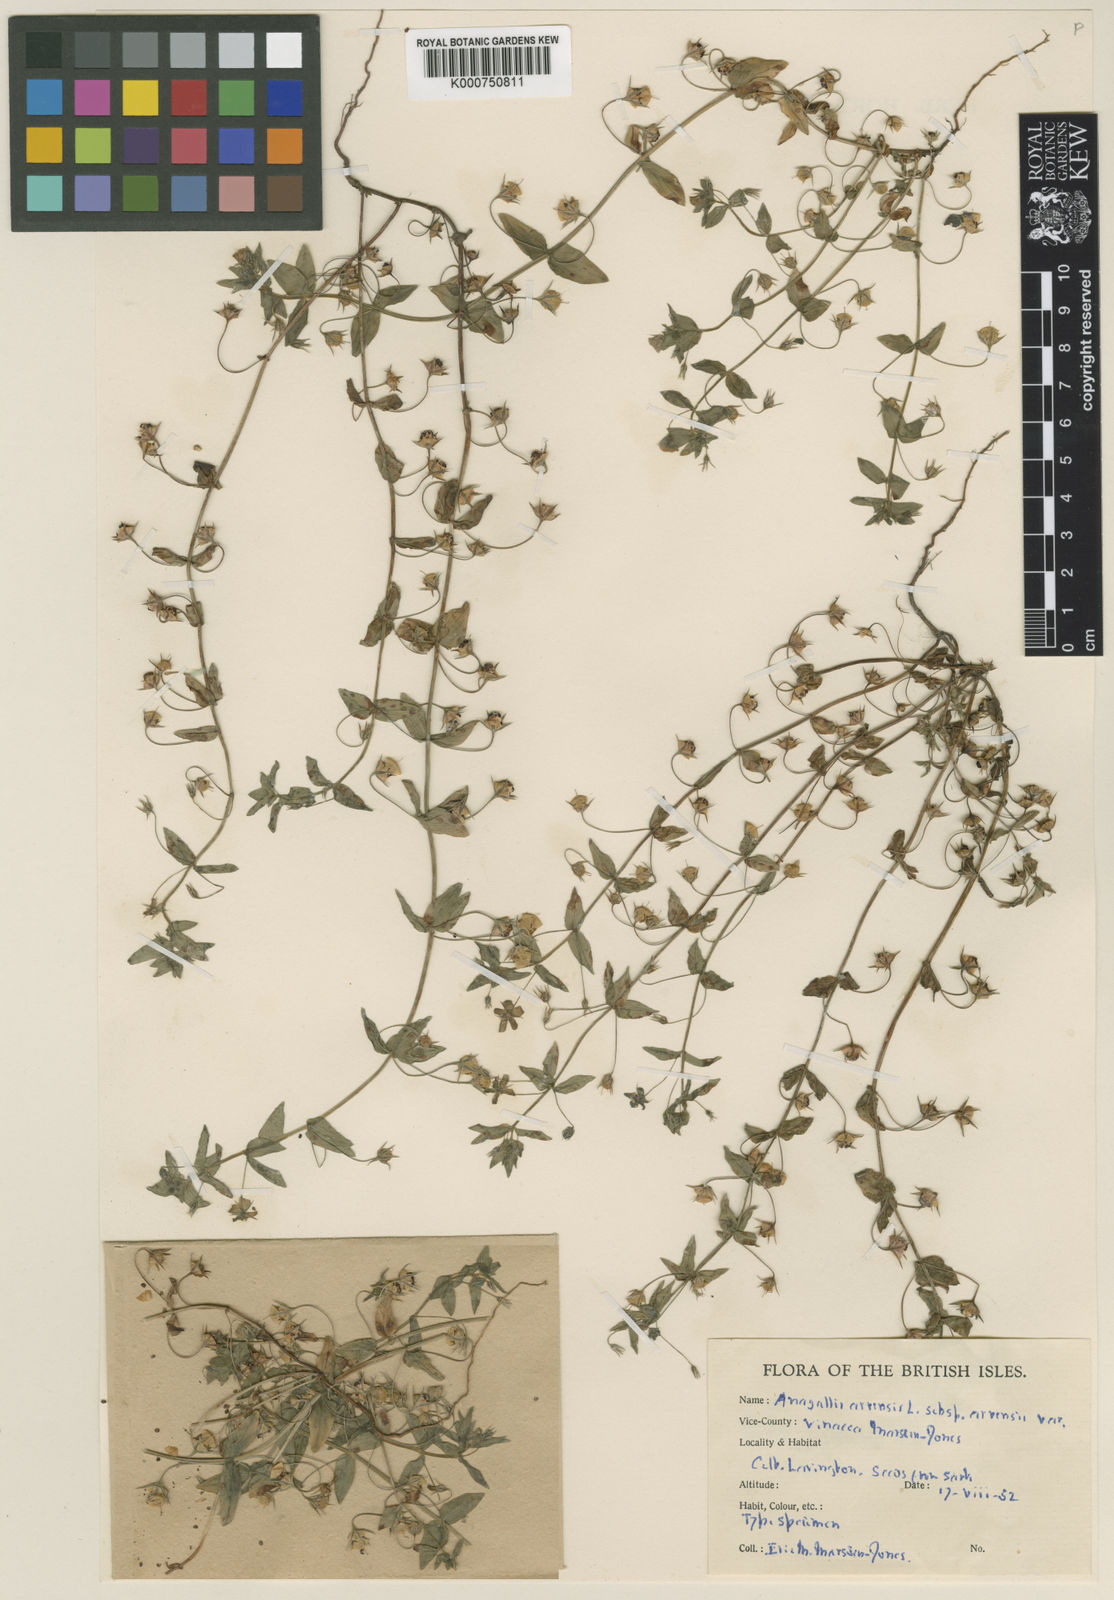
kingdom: Plantae
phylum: Tracheophyta
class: Magnoliopsida
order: Ericales
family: Primulaceae
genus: Lysimachia
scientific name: Lysimachia arvensis
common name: Scarlet pimpernel
